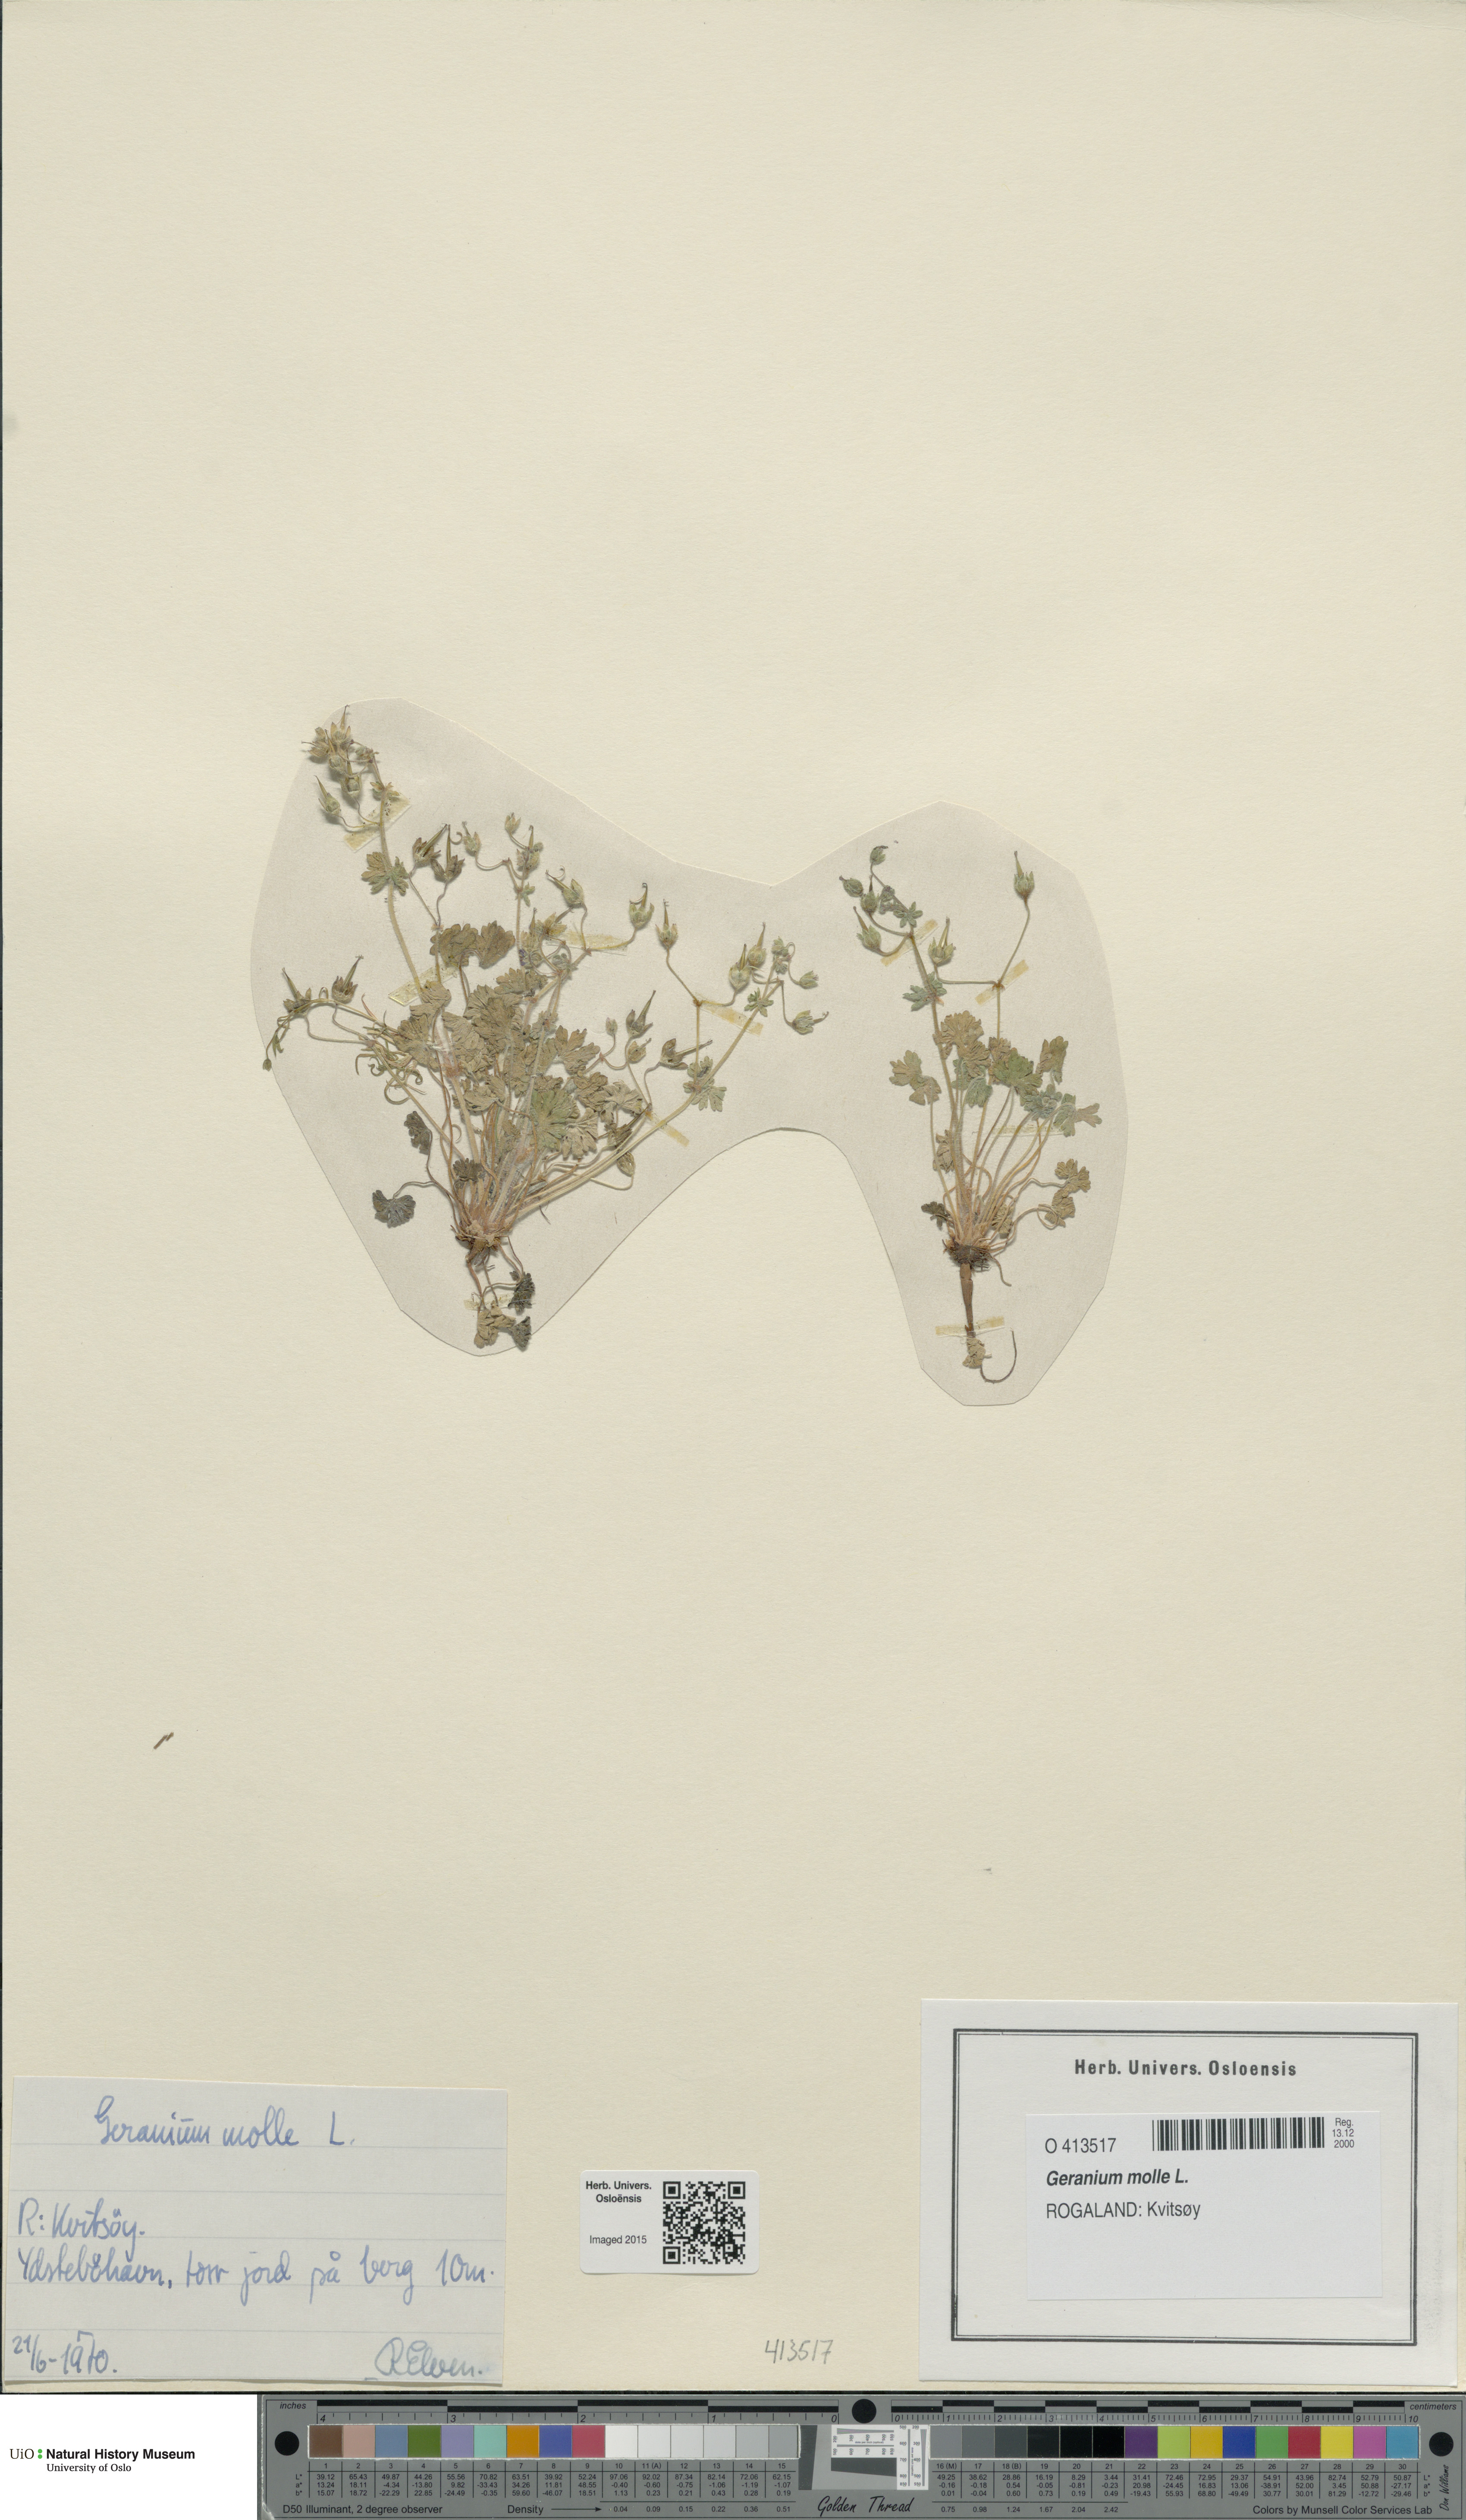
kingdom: Plantae
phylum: Tracheophyta
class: Magnoliopsida
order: Geraniales
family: Geraniaceae
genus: Geranium
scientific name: Geranium molle
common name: Dove's-foot crane's-bill
